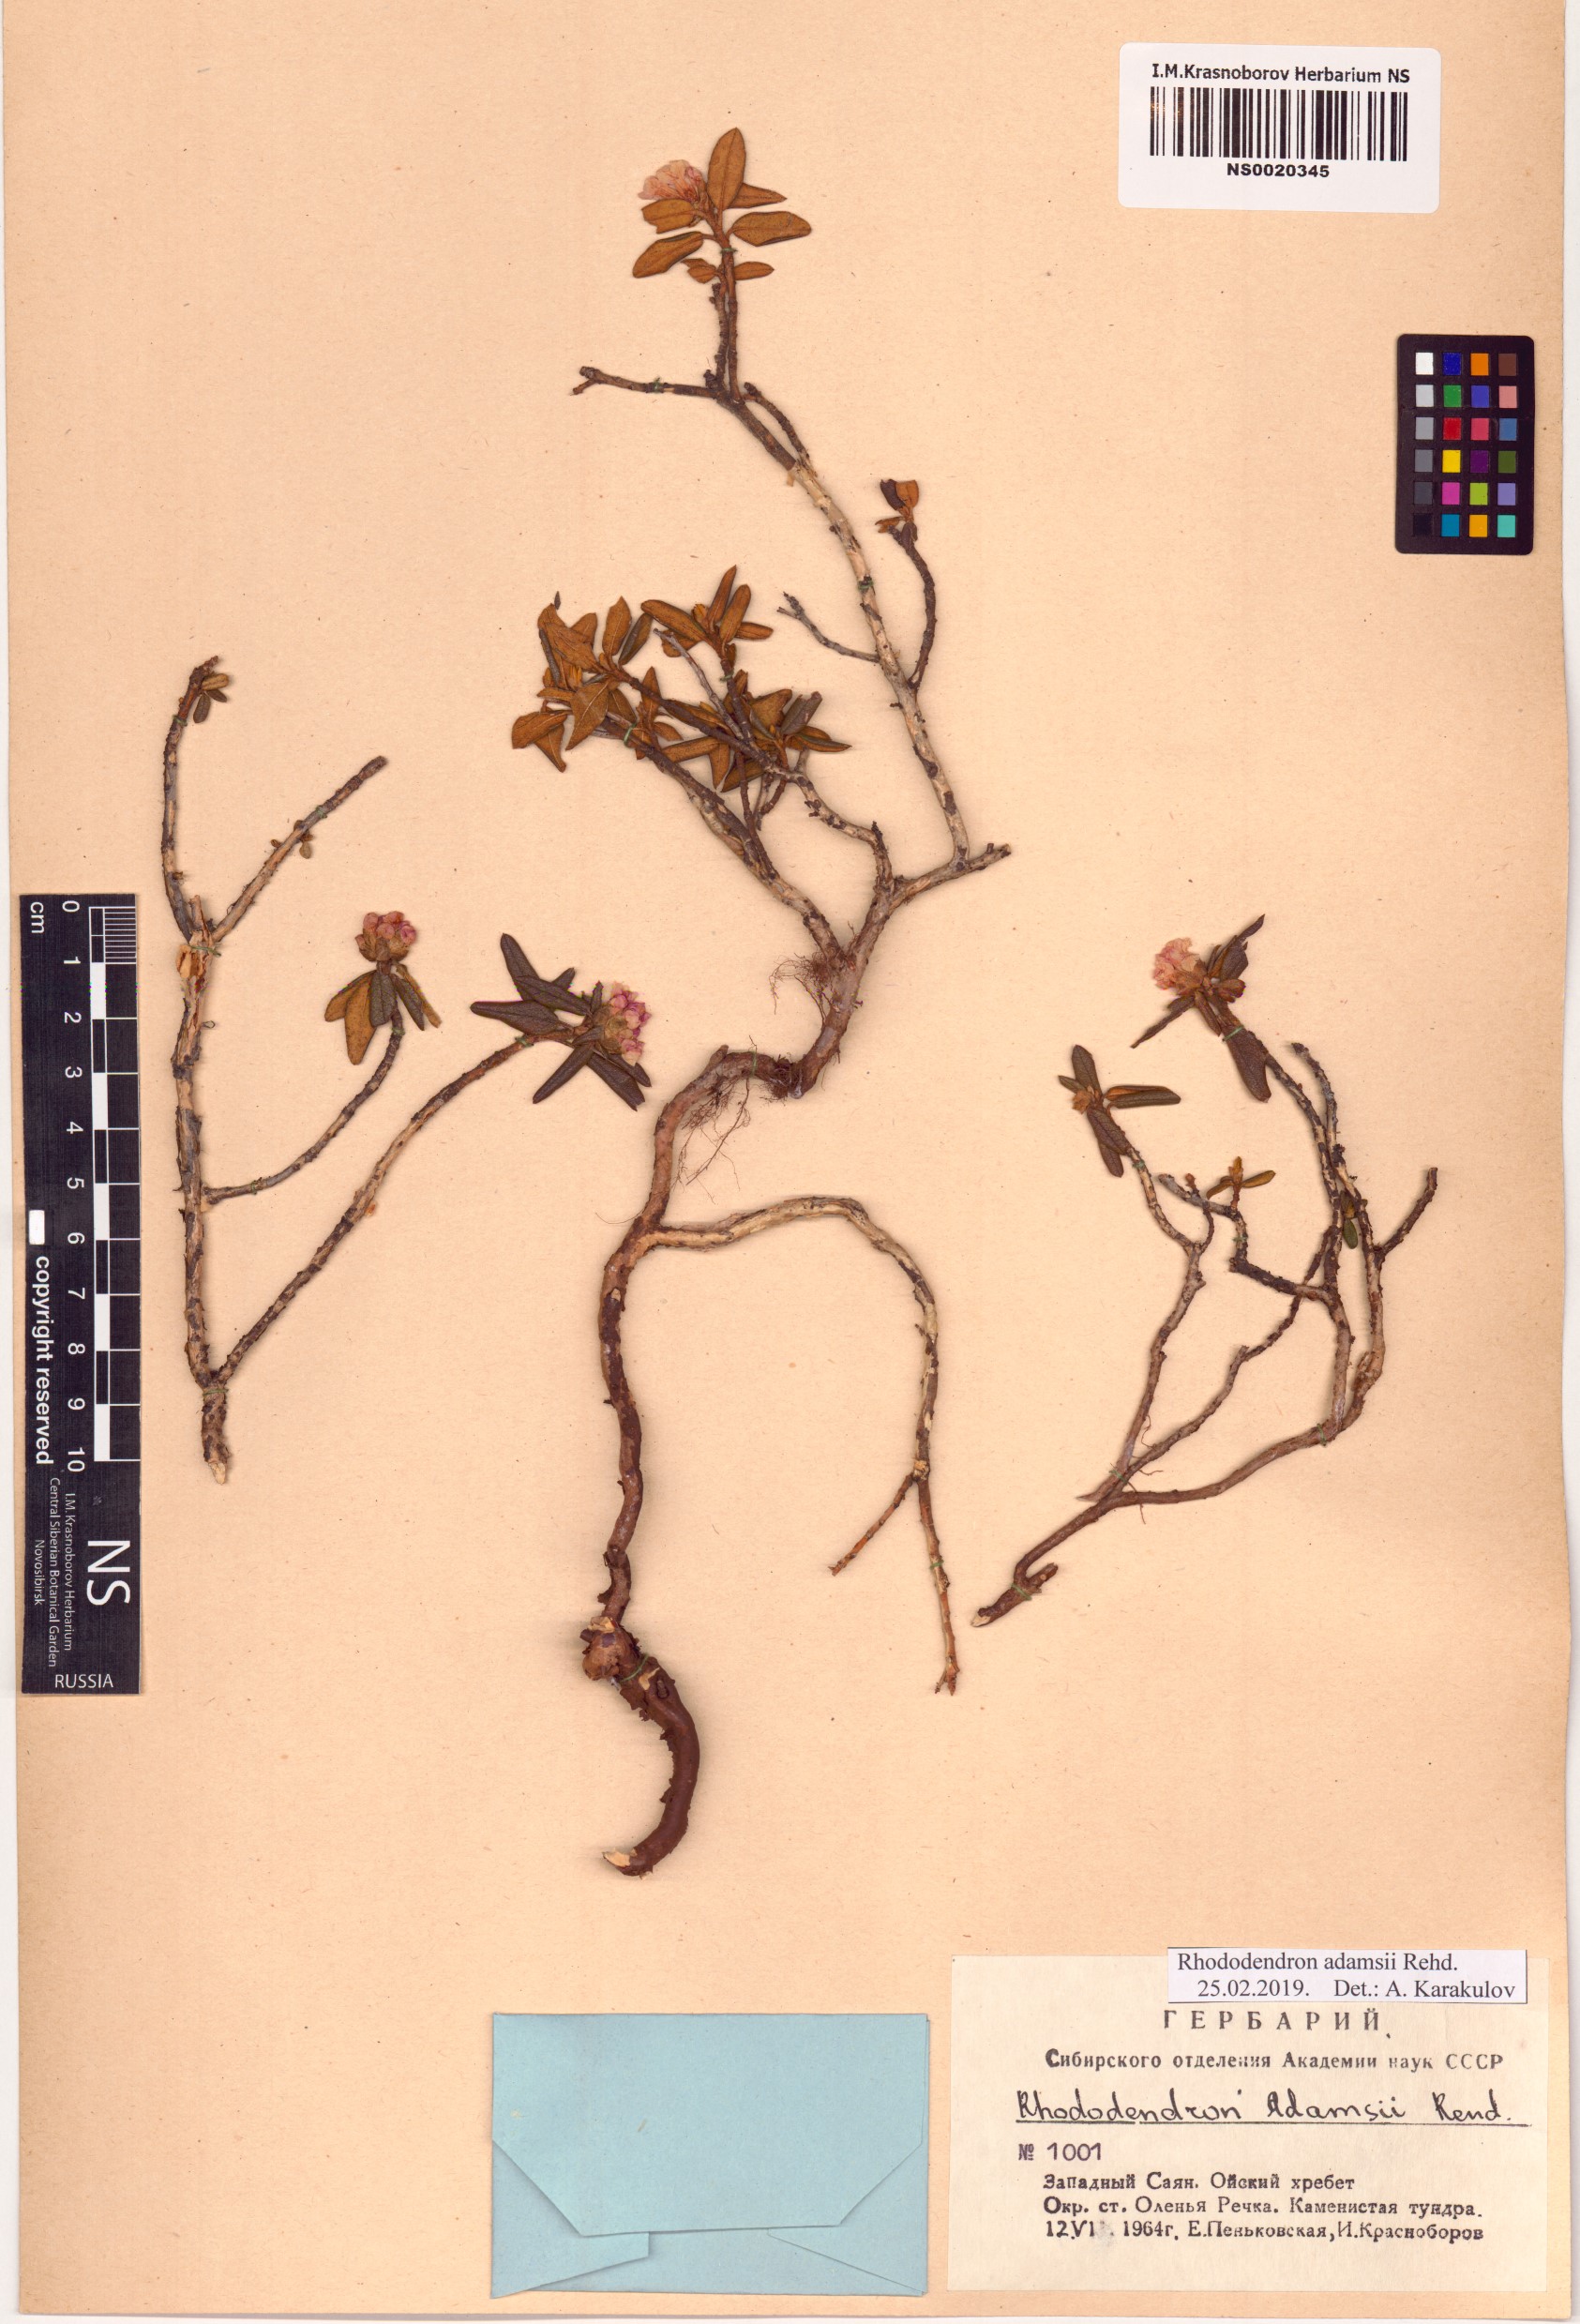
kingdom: Plantae
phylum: Tracheophyta
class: Magnoliopsida
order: Ericales
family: Ericaceae
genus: Rhododendron
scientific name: Rhododendron adamsii
